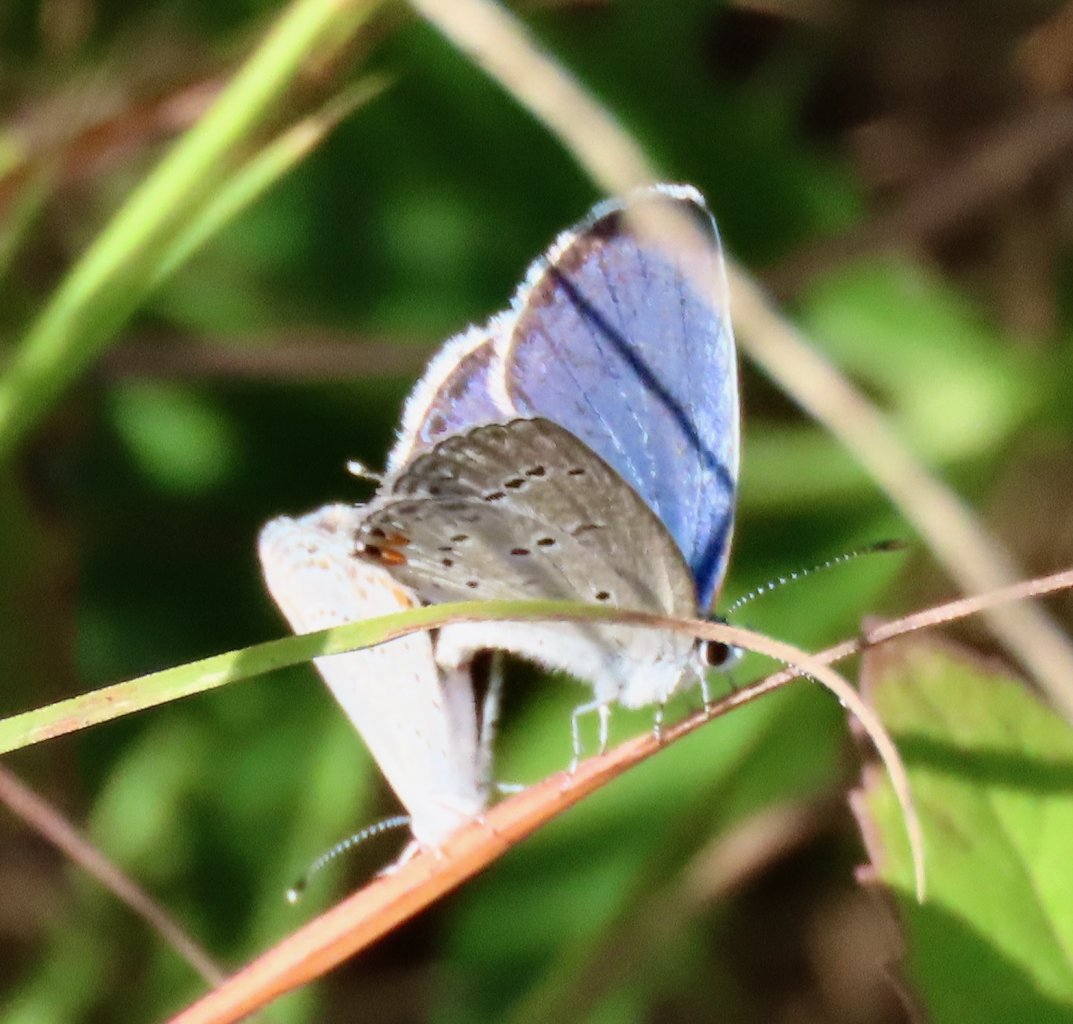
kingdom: Animalia
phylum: Arthropoda
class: Insecta
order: Lepidoptera
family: Lycaenidae
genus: Elkalyce
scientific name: Elkalyce comyntas
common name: Eastern Tailed-Blue
